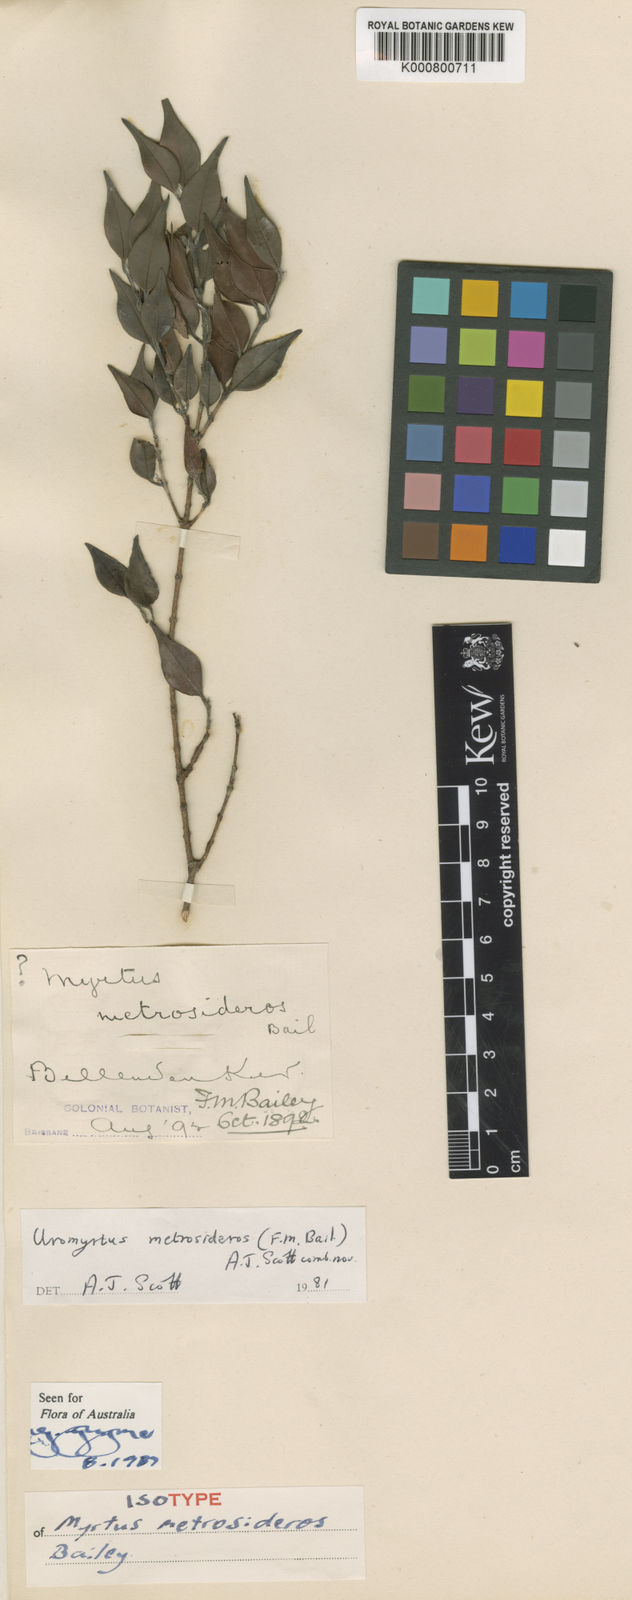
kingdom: Plantae
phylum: Tracheophyta
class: Magnoliopsida
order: Myrtales
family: Myrtaceae
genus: Uromyrtus
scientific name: Uromyrtus metrosideros
